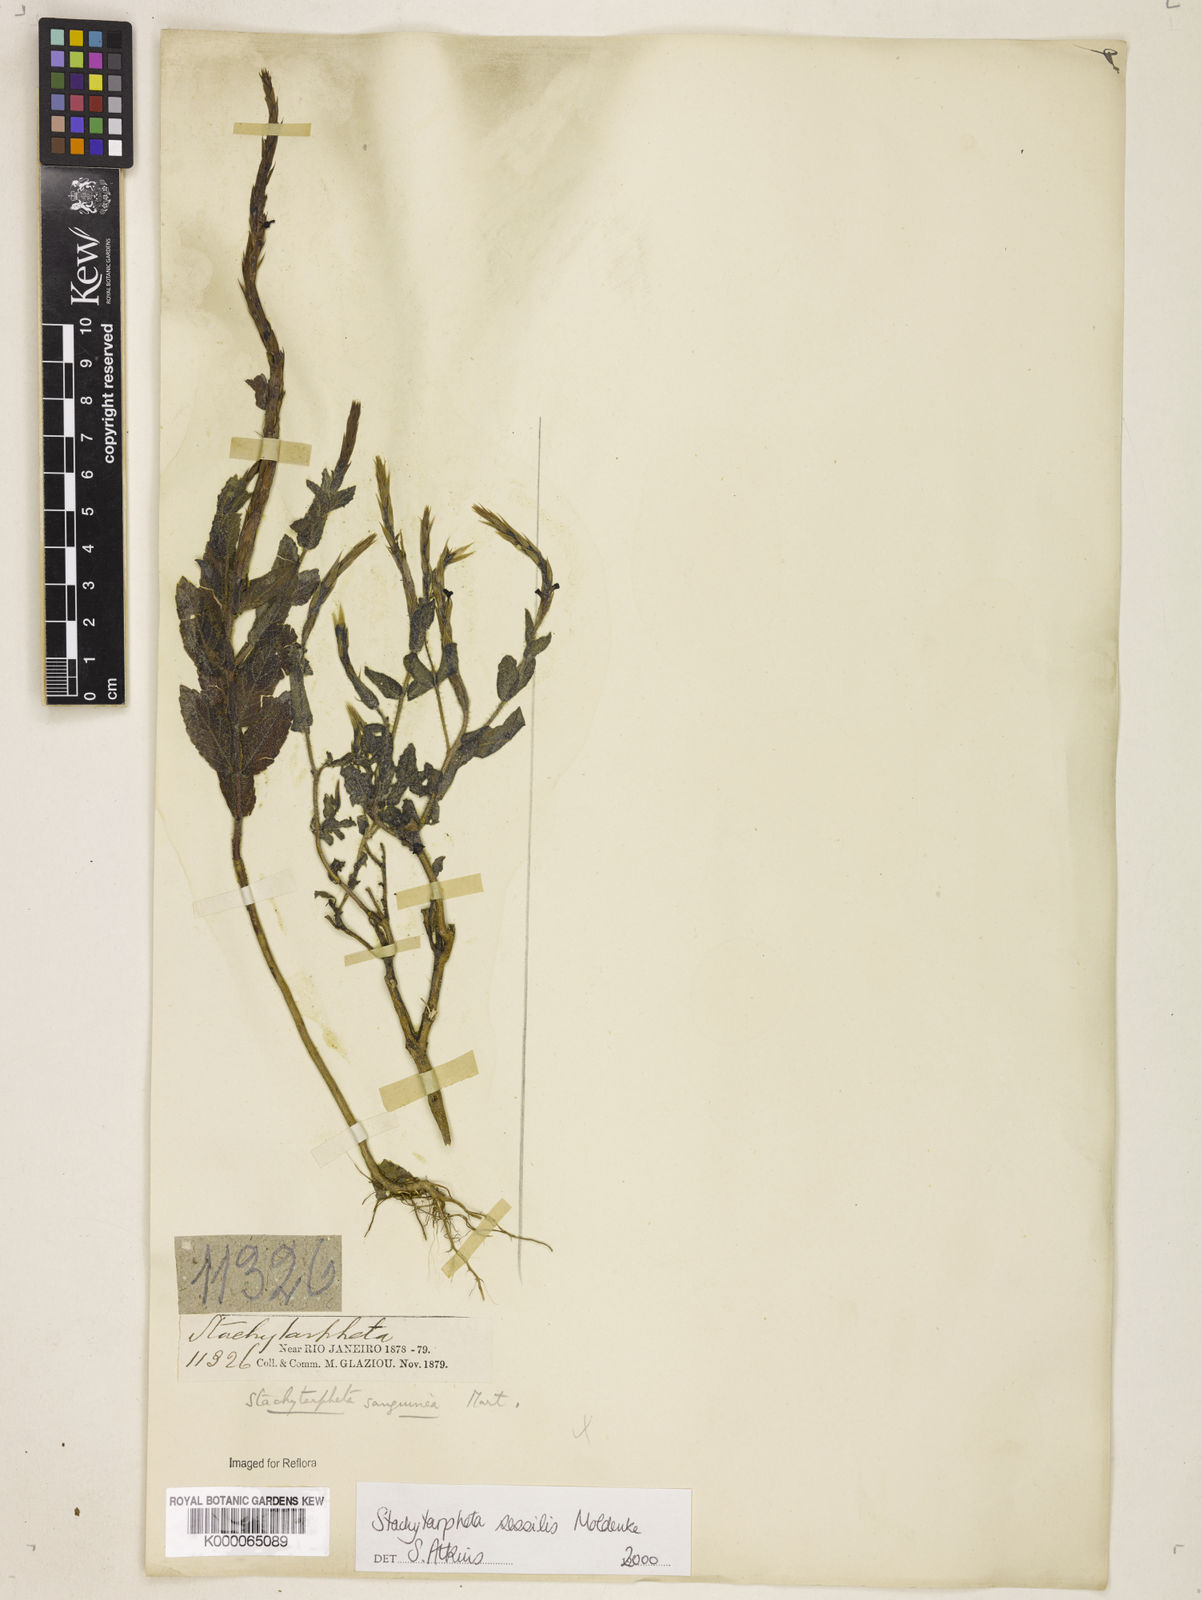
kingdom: Plantae
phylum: Tracheophyta
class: Magnoliopsida
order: Lamiales
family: Verbenaceae
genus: Stachytarpheta
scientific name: Stachytarpheta sessilis
